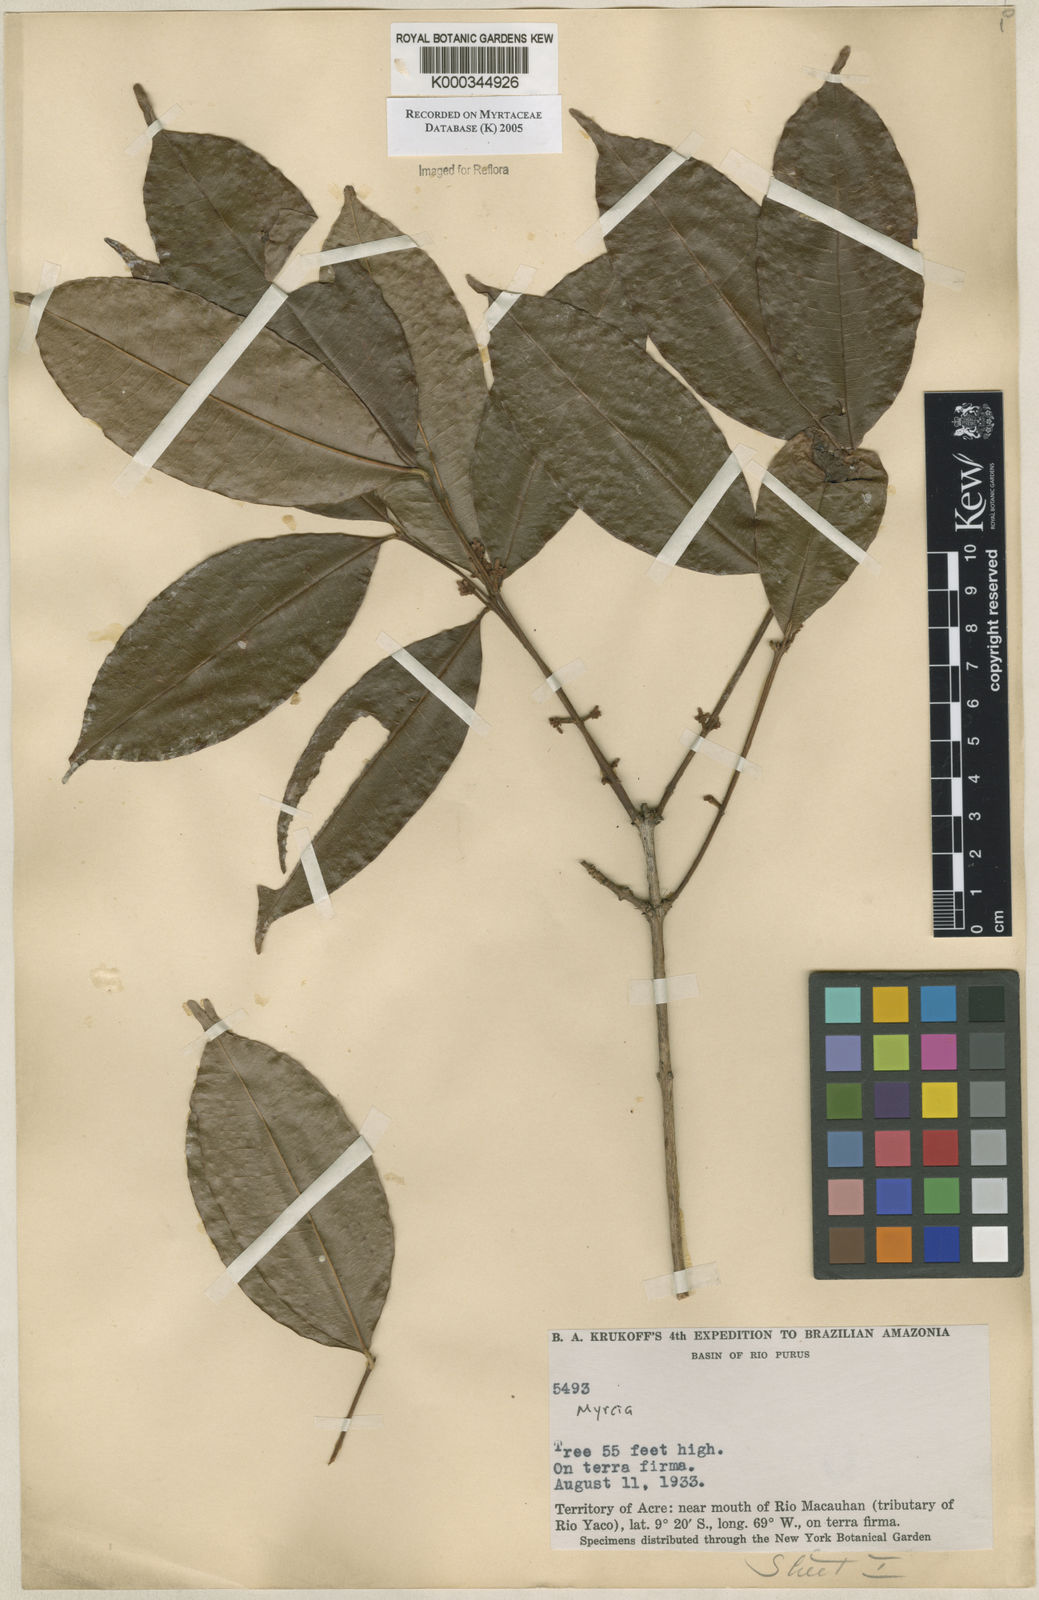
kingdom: Plantae
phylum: Tracheophyta
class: Magnoliopsida
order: Myrtales
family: Myrtaceae
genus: Myrcia
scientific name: Myrcia
